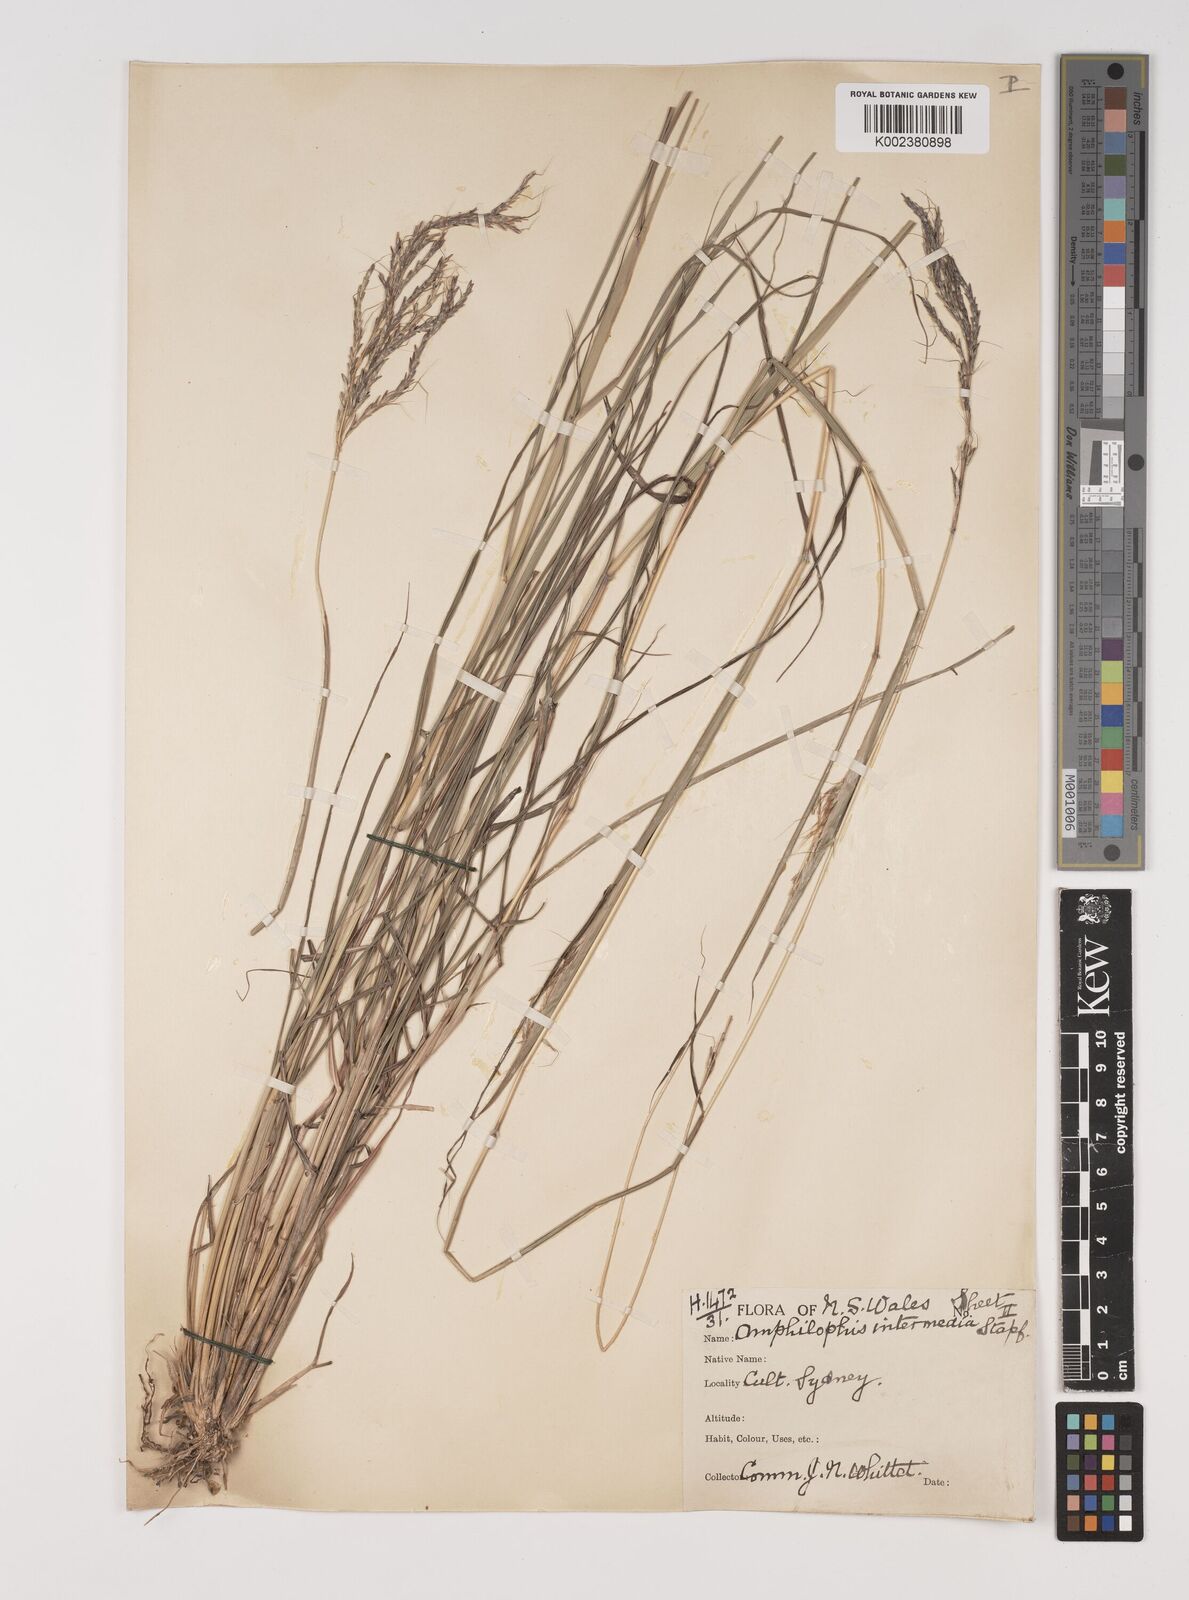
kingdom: Plantae
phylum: Tracheophyta
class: Liliopsida
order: Poales
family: Poaceae
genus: Bothriochloa
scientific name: Bothriochloa bladhii
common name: Caucasian bluestem
